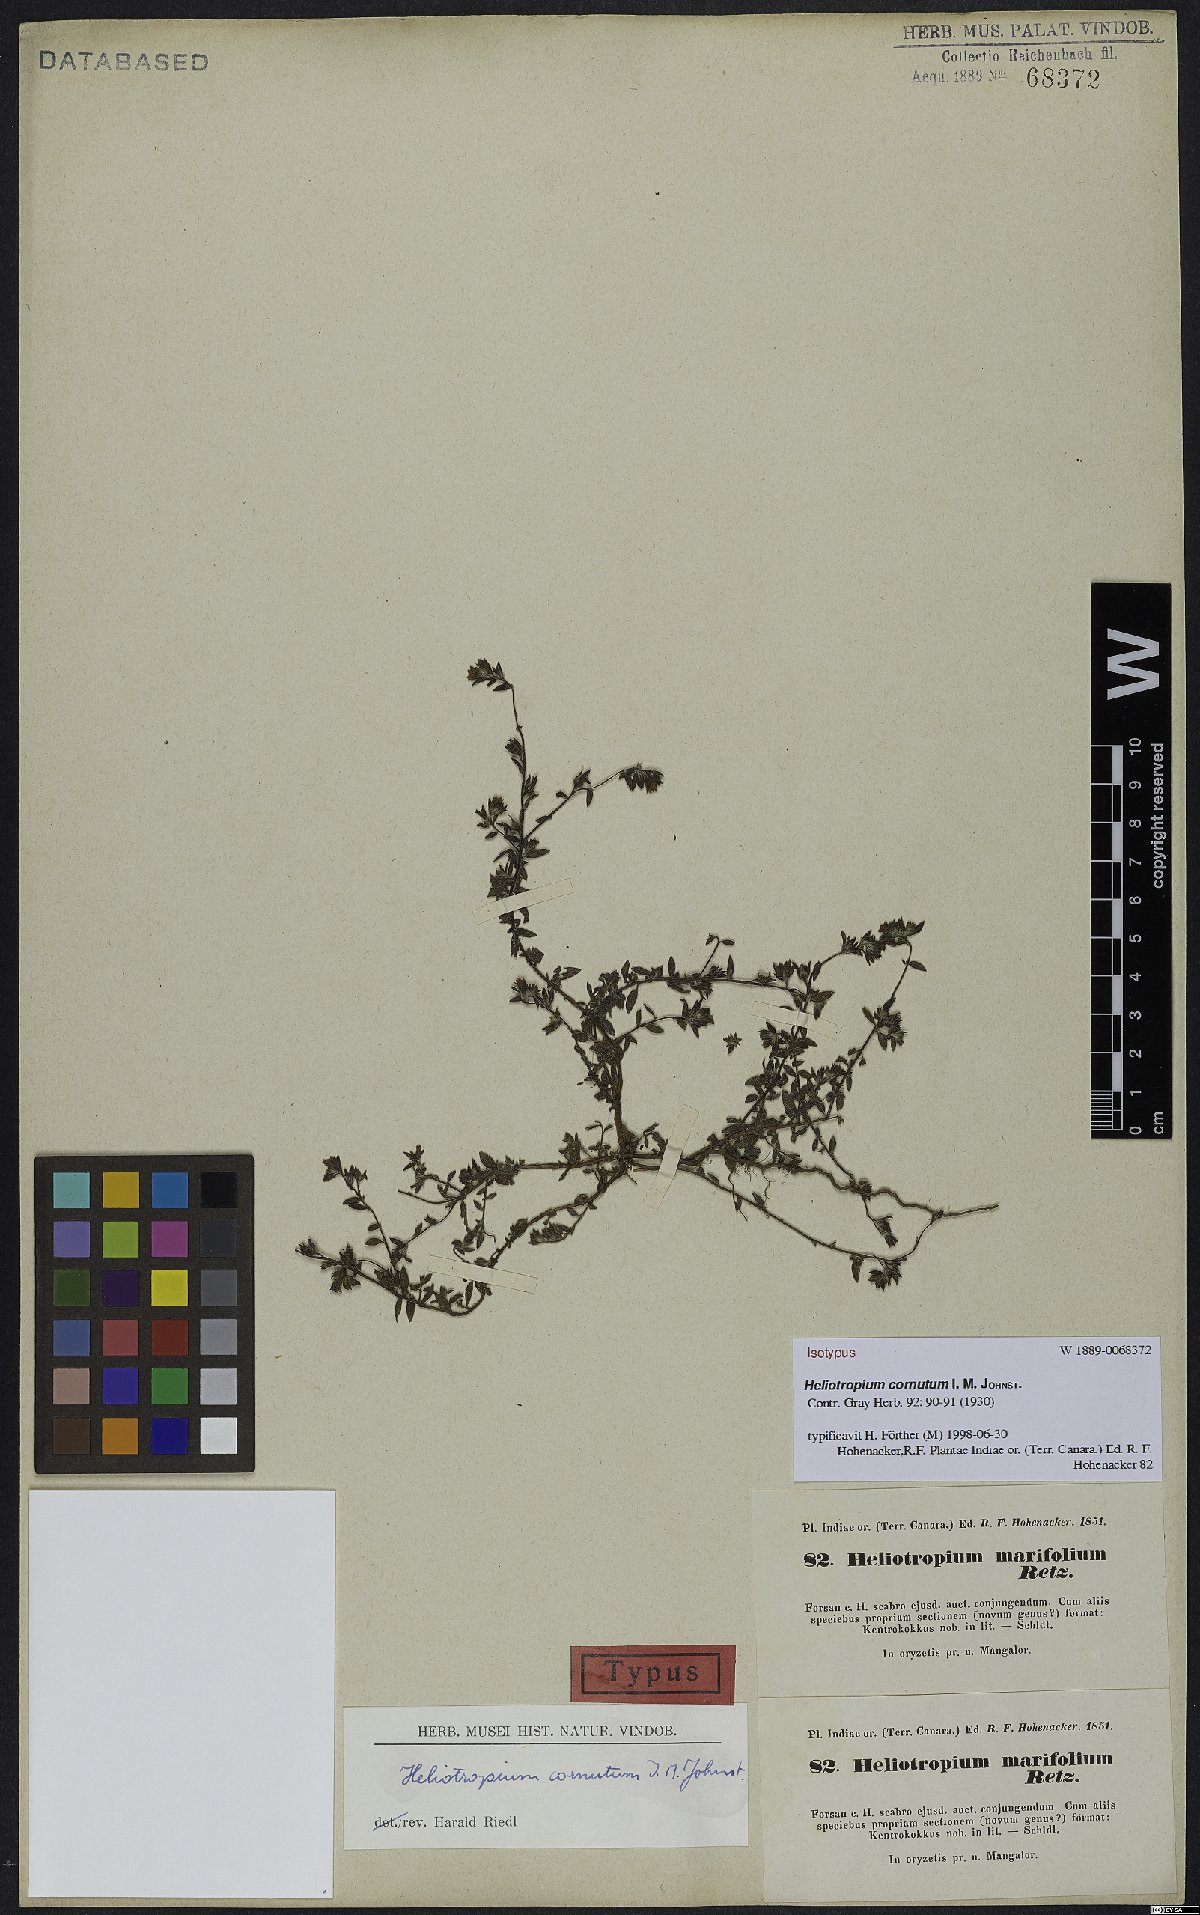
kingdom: Plantae
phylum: Tracheophyta
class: Magnoliopsida
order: Boraginales
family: Heliotropiaceae
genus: Euploca
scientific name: Euploca cornuta
